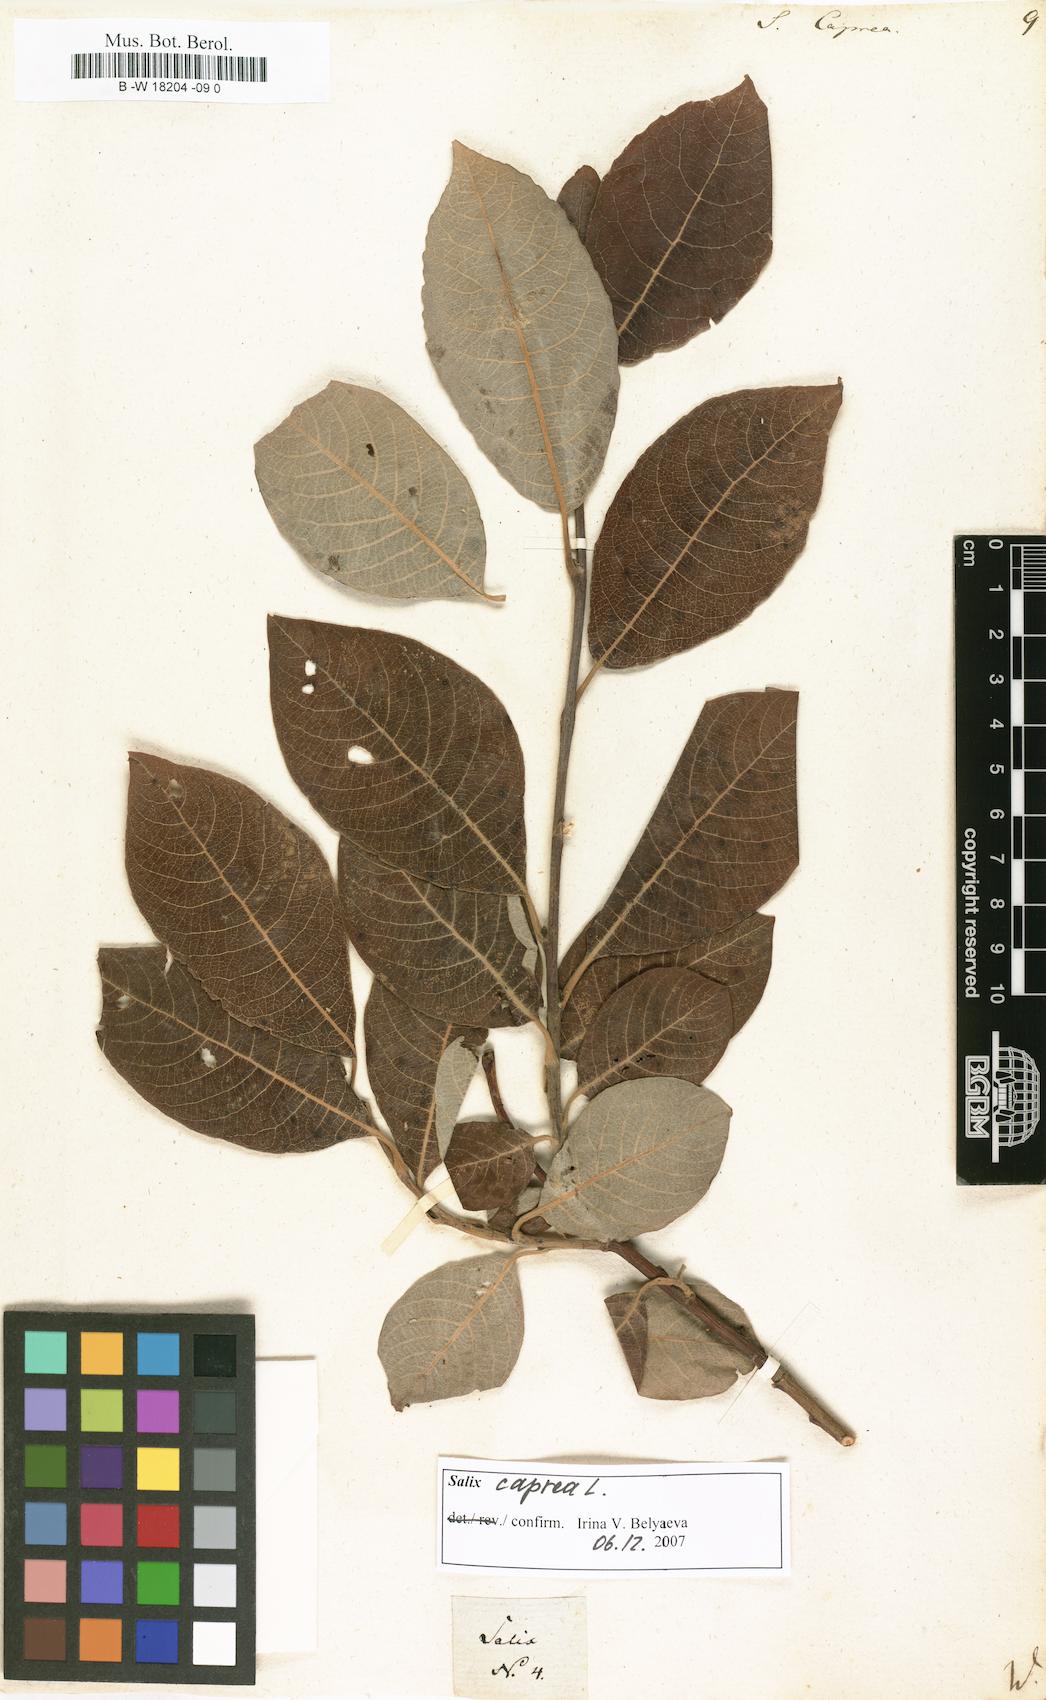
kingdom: Plantae
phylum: Tracheophyta
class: Magnoliopsida
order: Malpighiales
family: Salicaceae
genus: Salix
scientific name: Salix caprea
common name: Goat willow
